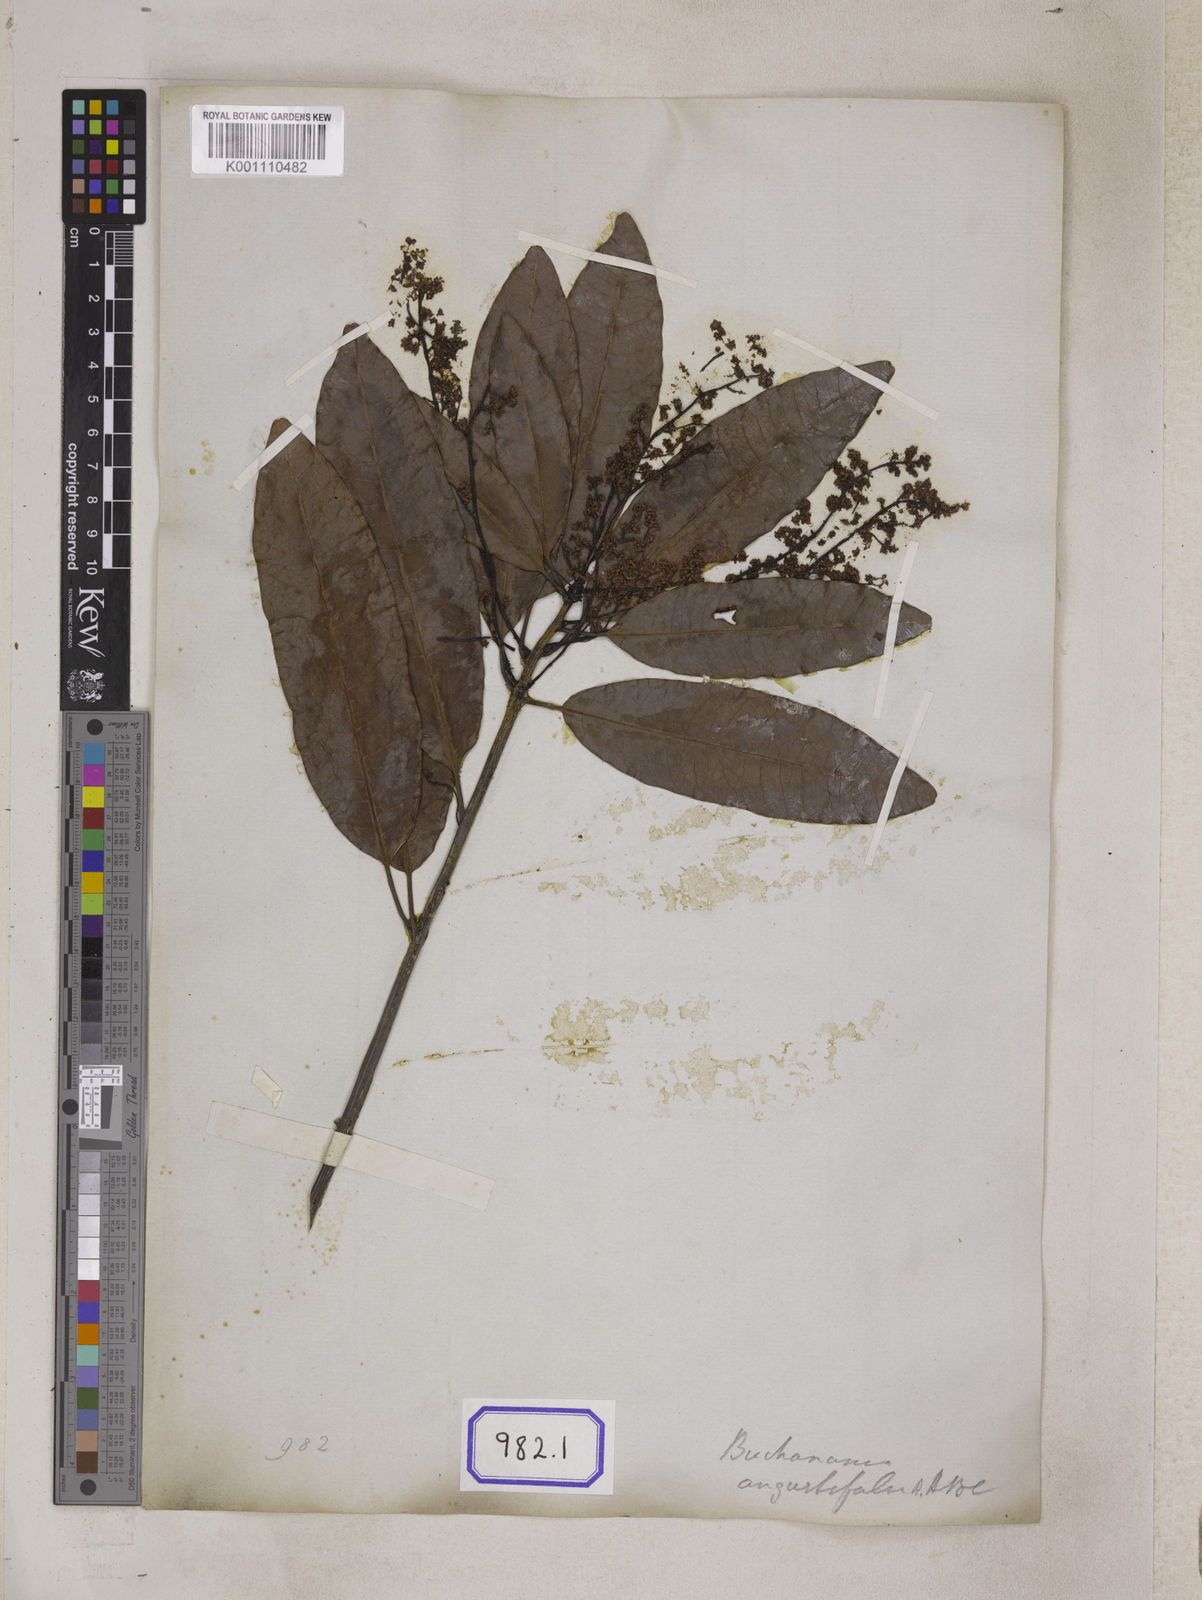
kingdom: Plantae
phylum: Tracheophyta
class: Magnoliopsida
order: Sapindales
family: Anacardiaceae
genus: Buchanania
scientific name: Buchanania axillaris
